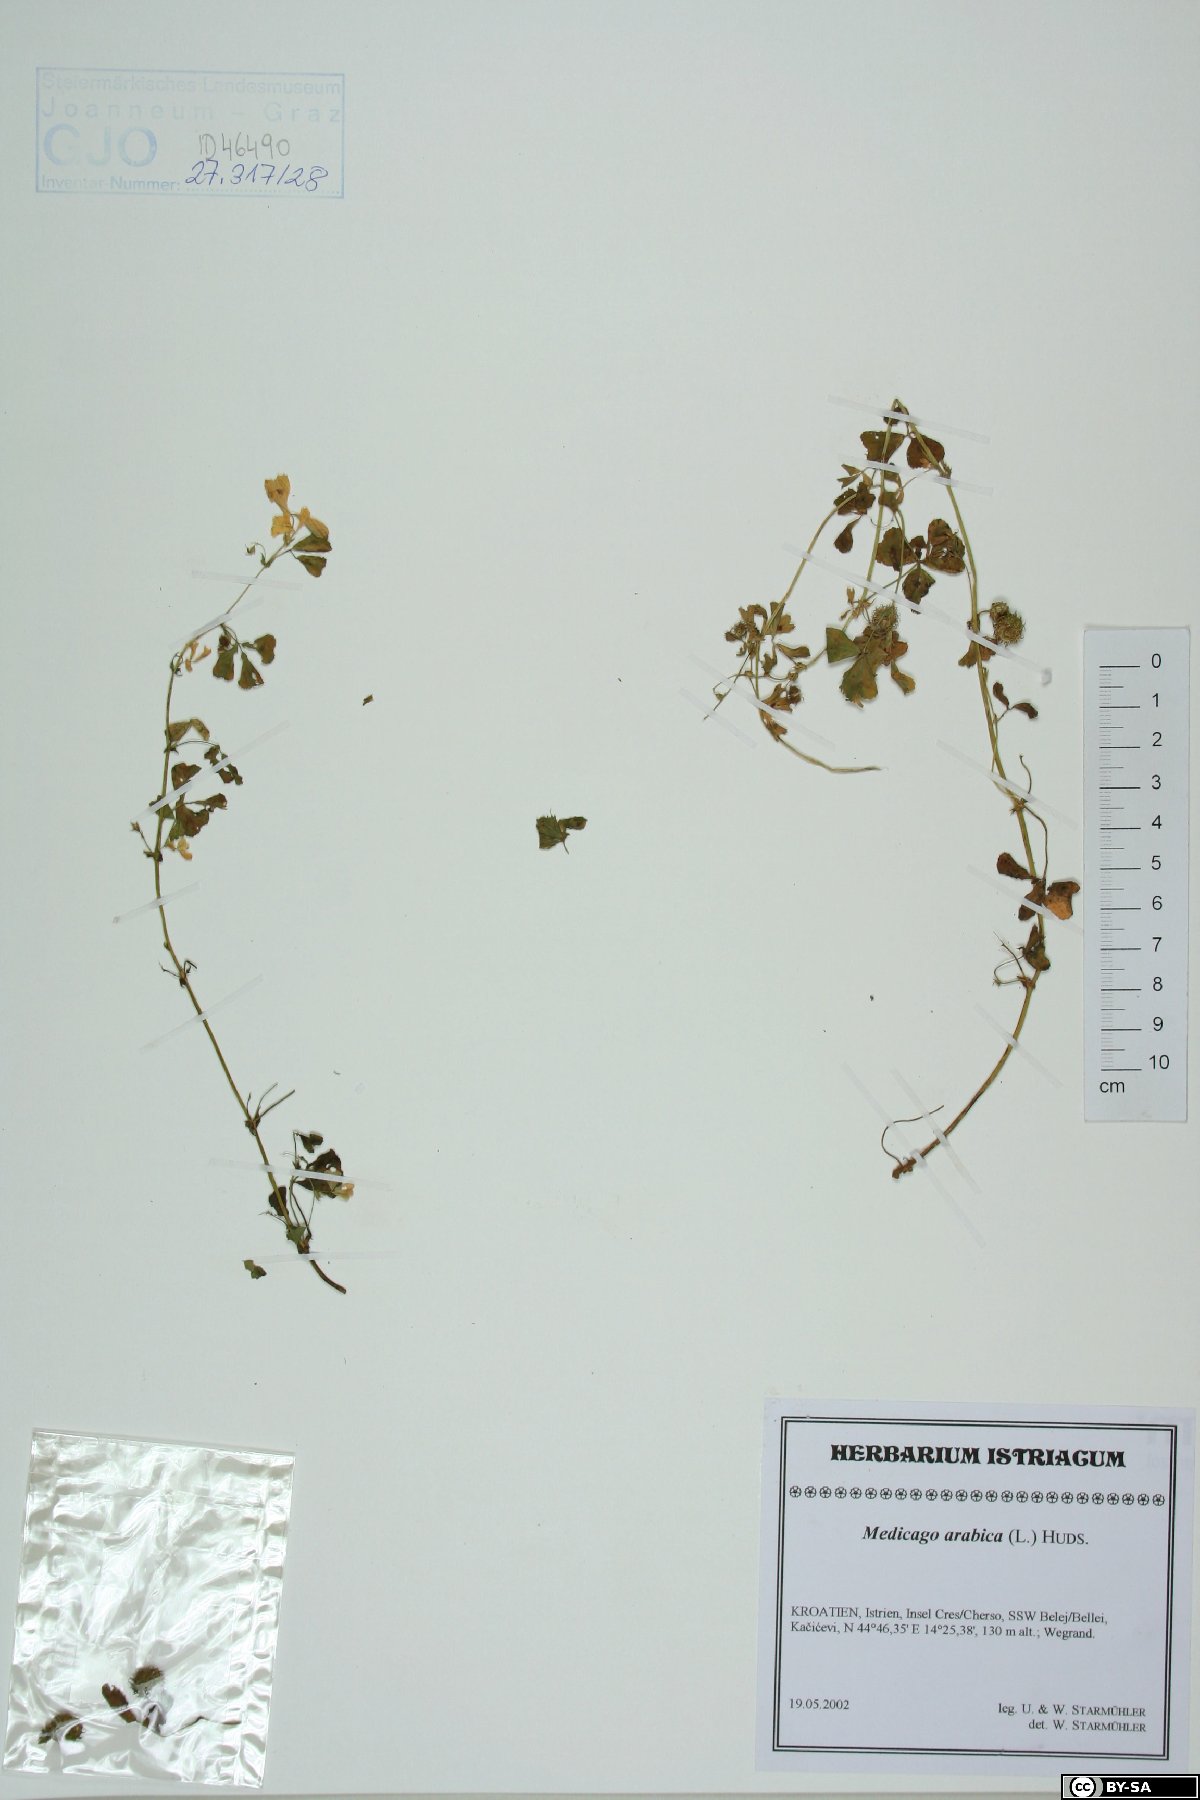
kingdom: Plantae
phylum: Tracheophyta
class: Magnoliopsida
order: Fabales
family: Fabaceae
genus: Medicago
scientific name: Medicago arabica
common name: Spotted medick
